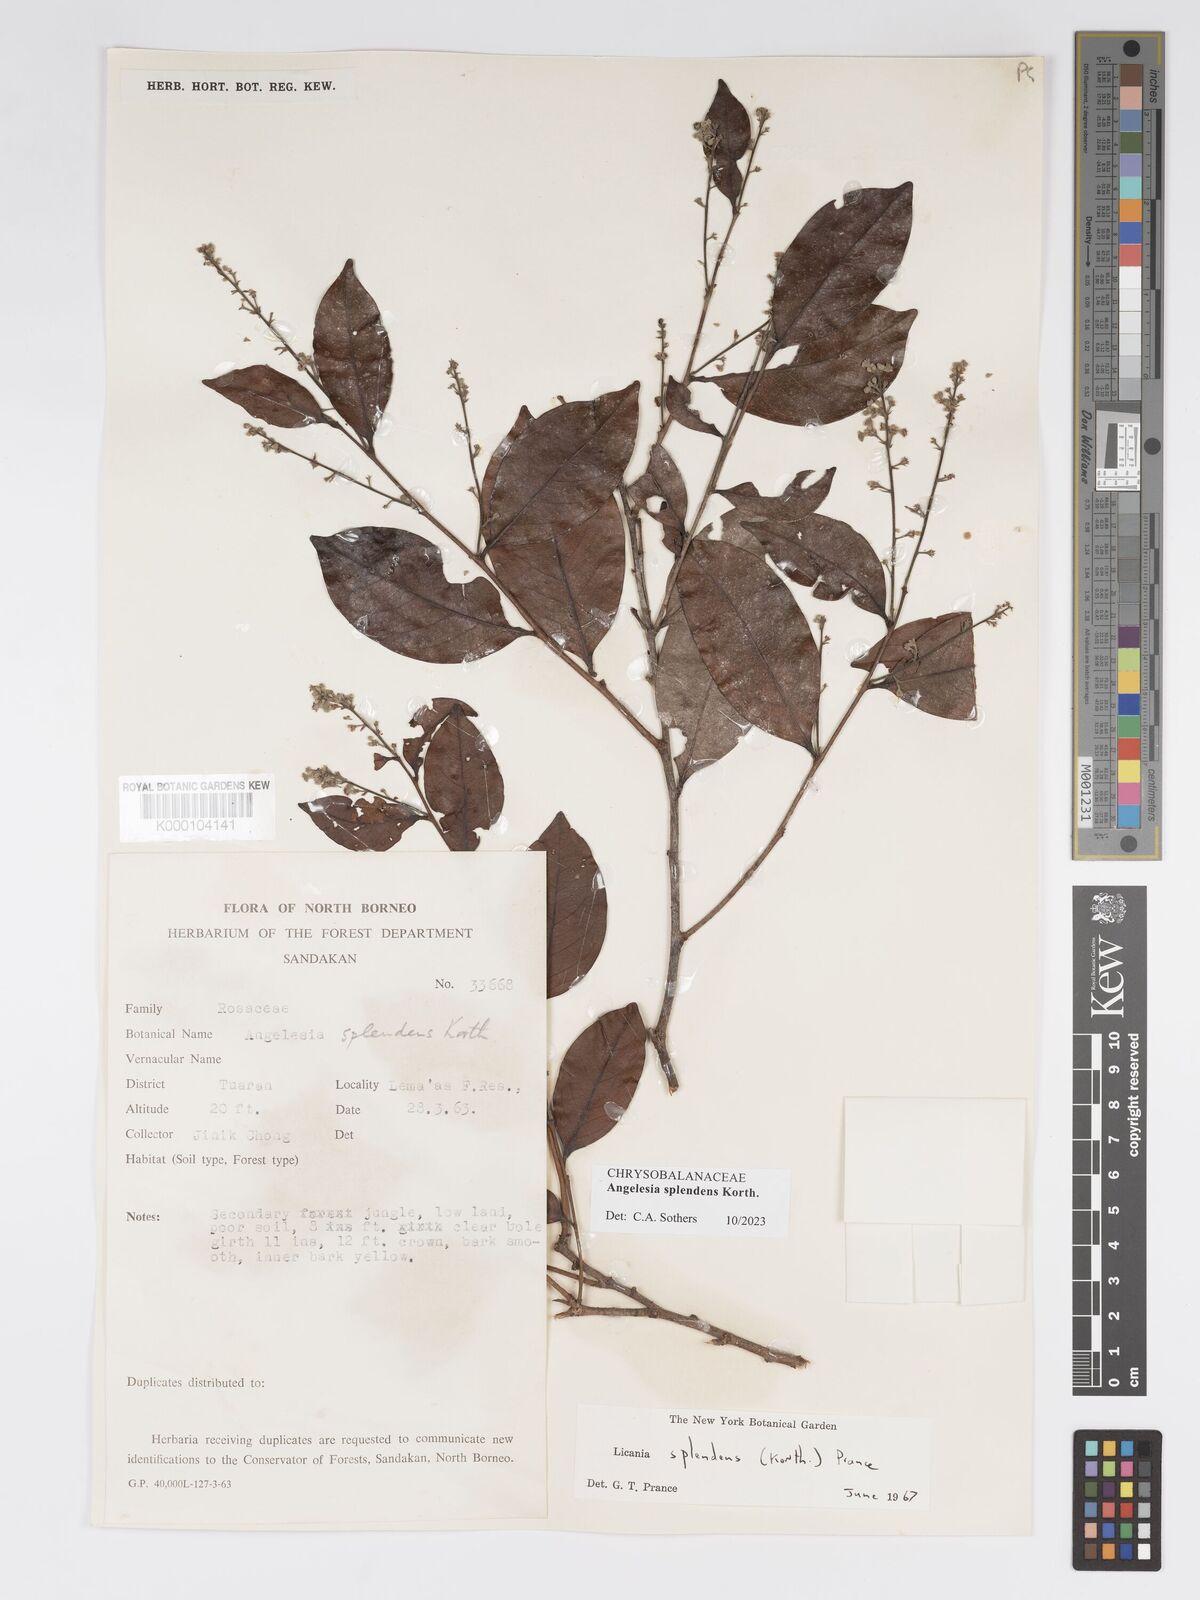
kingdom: Plantae
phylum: Tracheophyta
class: Magnoliopsida
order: Malpighiales
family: Chrysobalanaceae
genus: Angelesia
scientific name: Angelesia splendens
